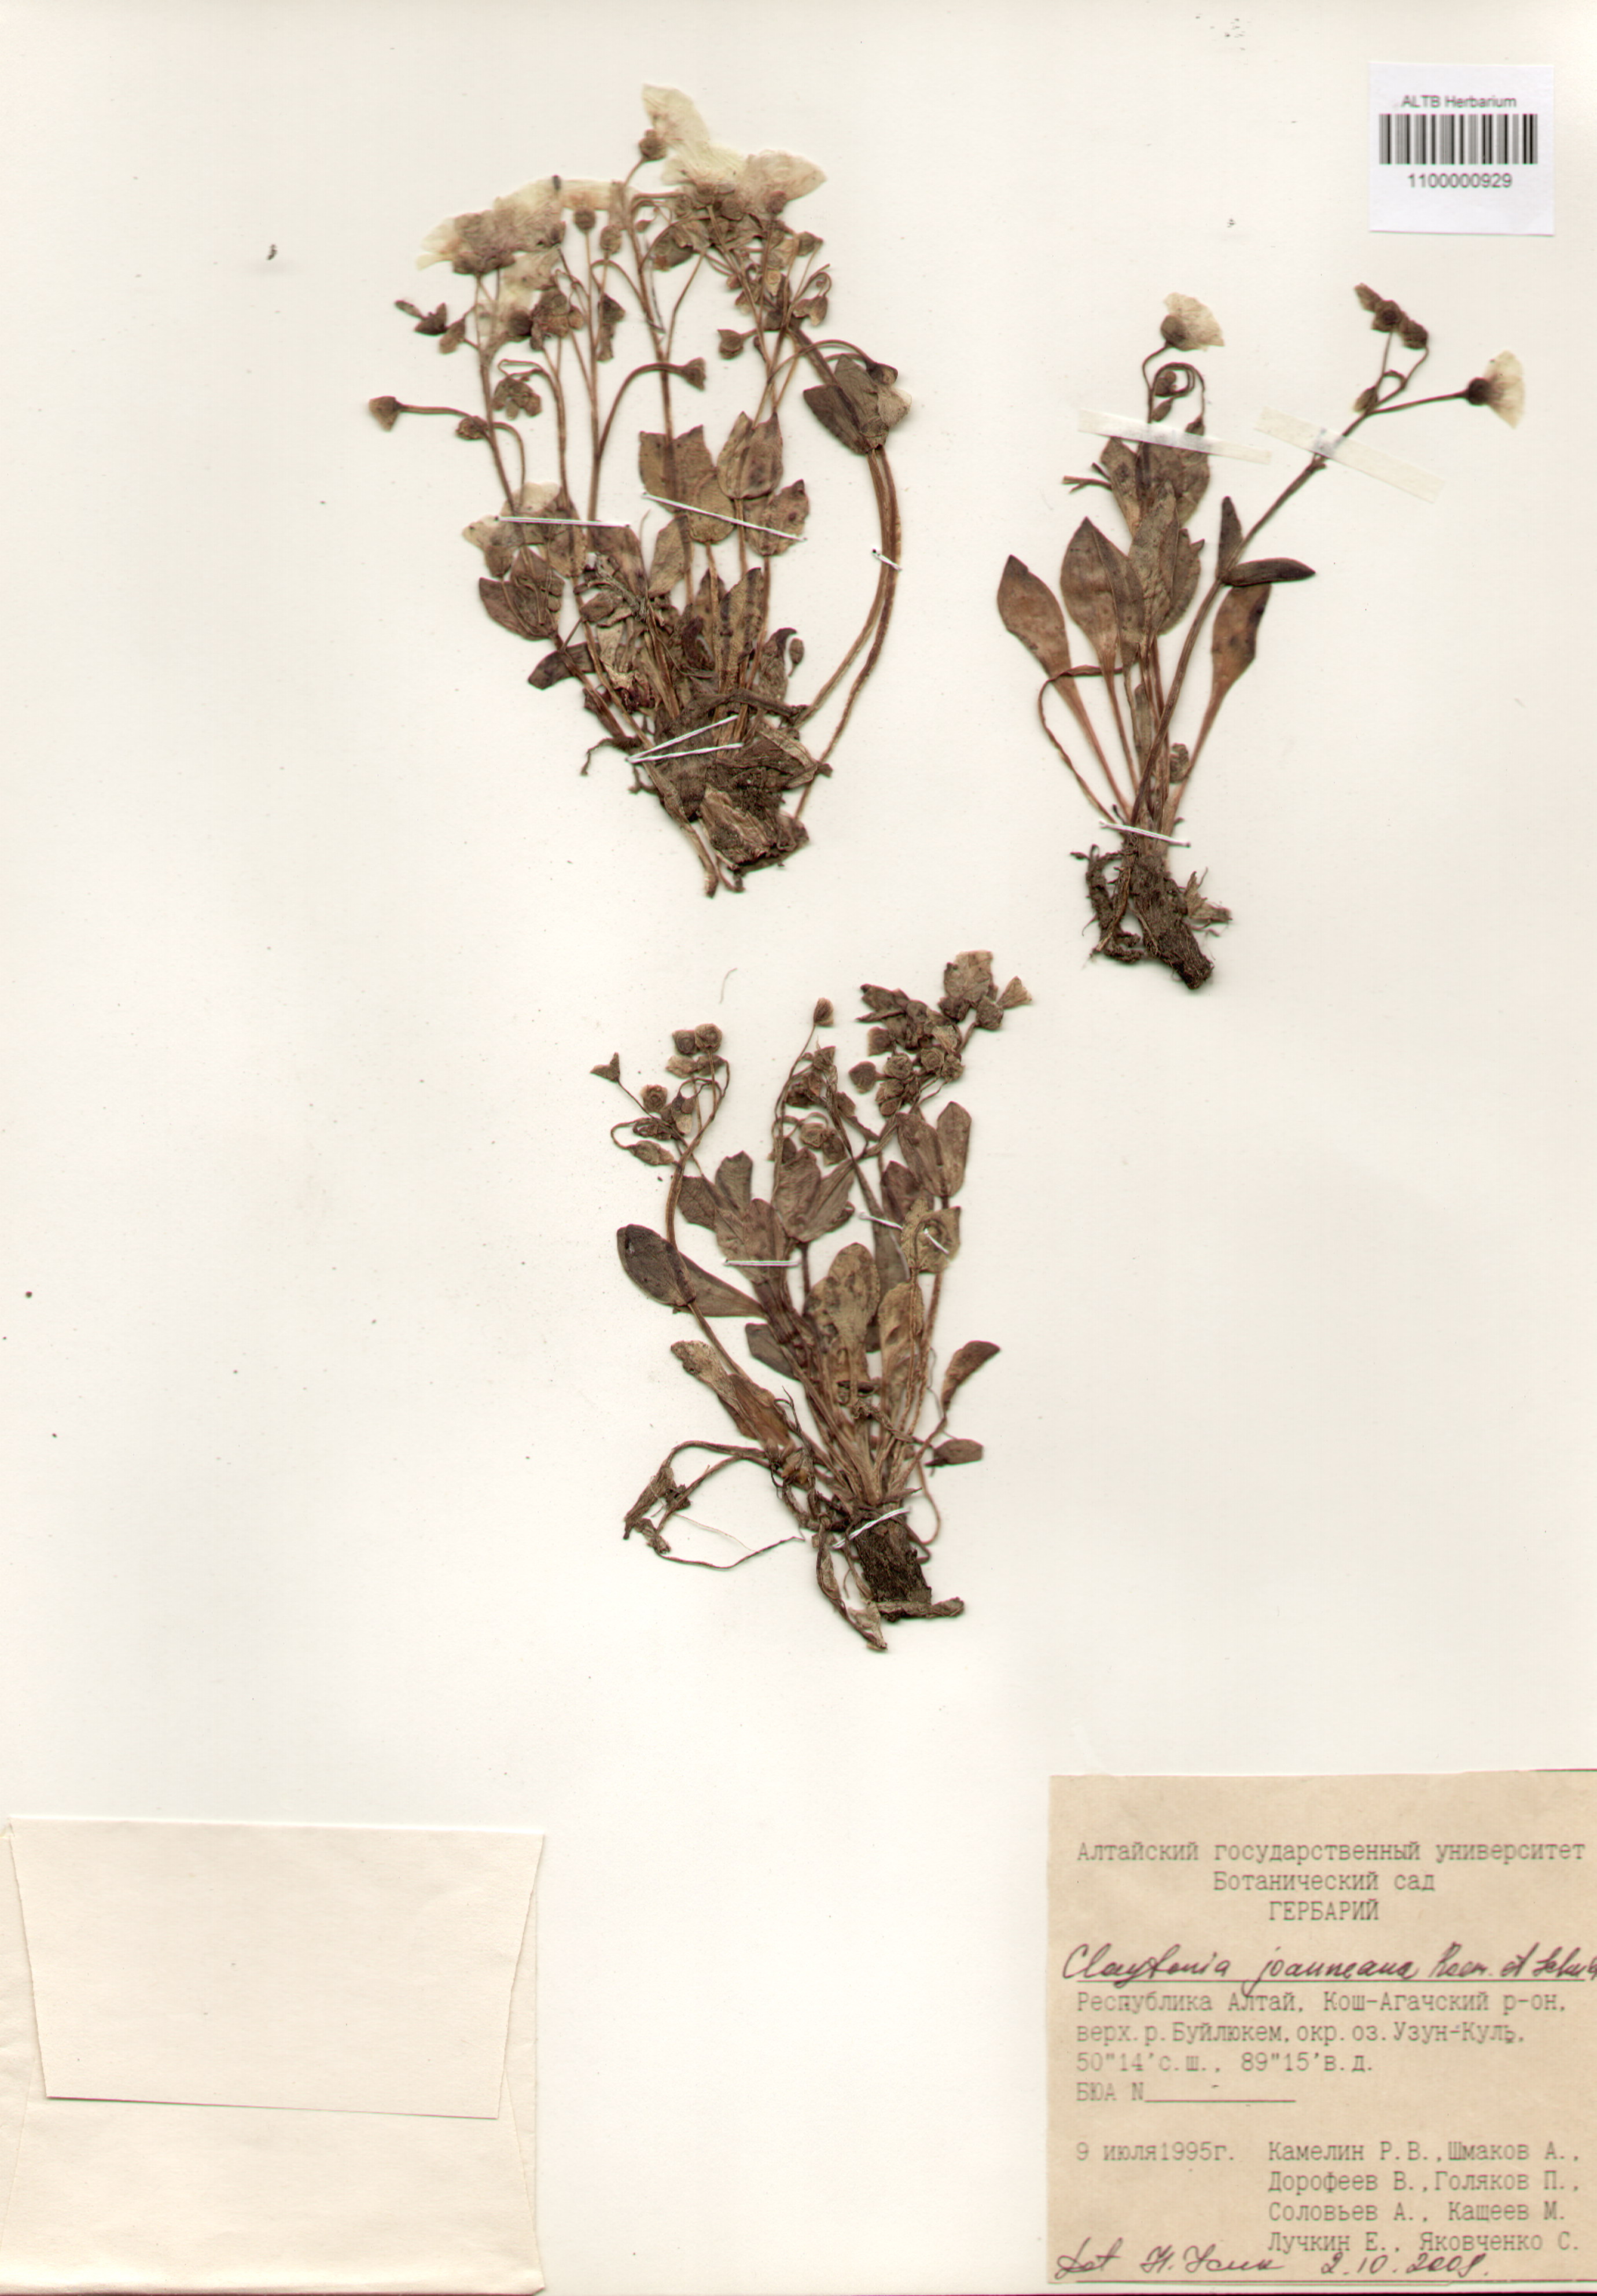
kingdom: Plantae
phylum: Tracheophyta
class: Magnoliopsida
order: Caryophyllales
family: Montiaceae
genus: Claytonia
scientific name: Claytonia joanneana
